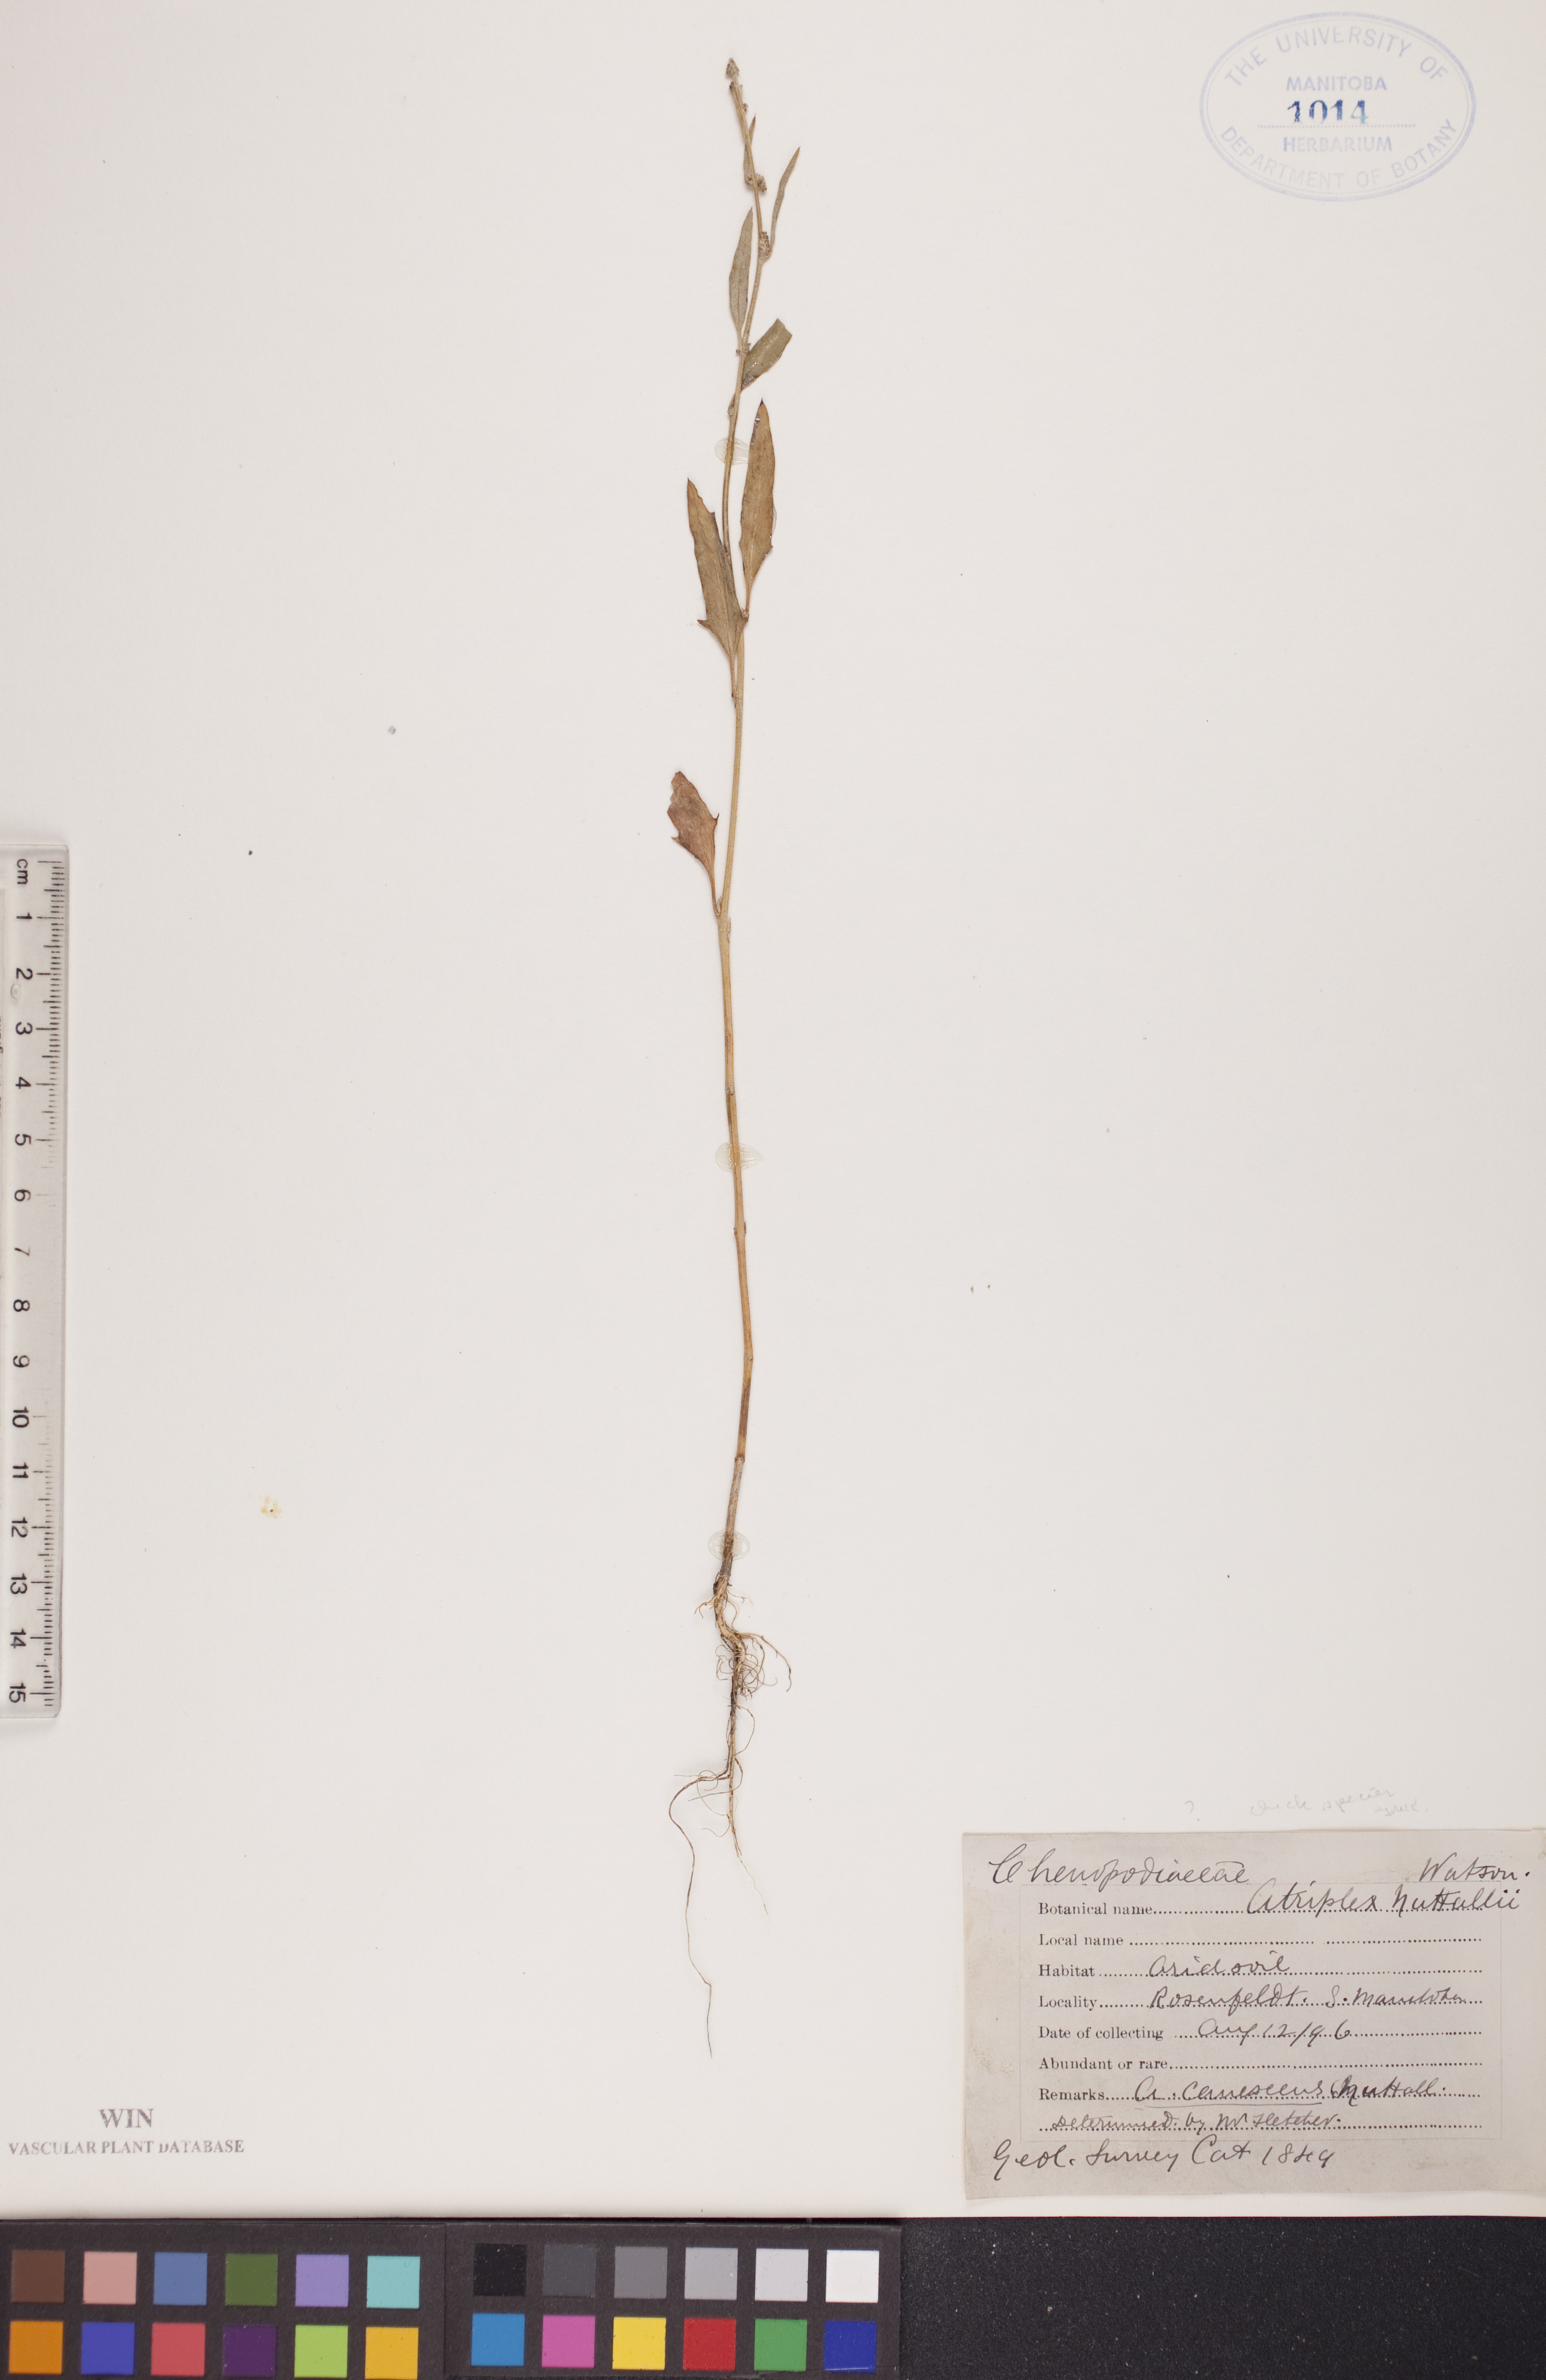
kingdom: Plantae
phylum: Tracheophyta
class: Magnoliopsida
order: Caryophyllales
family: Amaranthaceae
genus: Atriplex
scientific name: Atriplex canescens
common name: Four-wing saltbush
